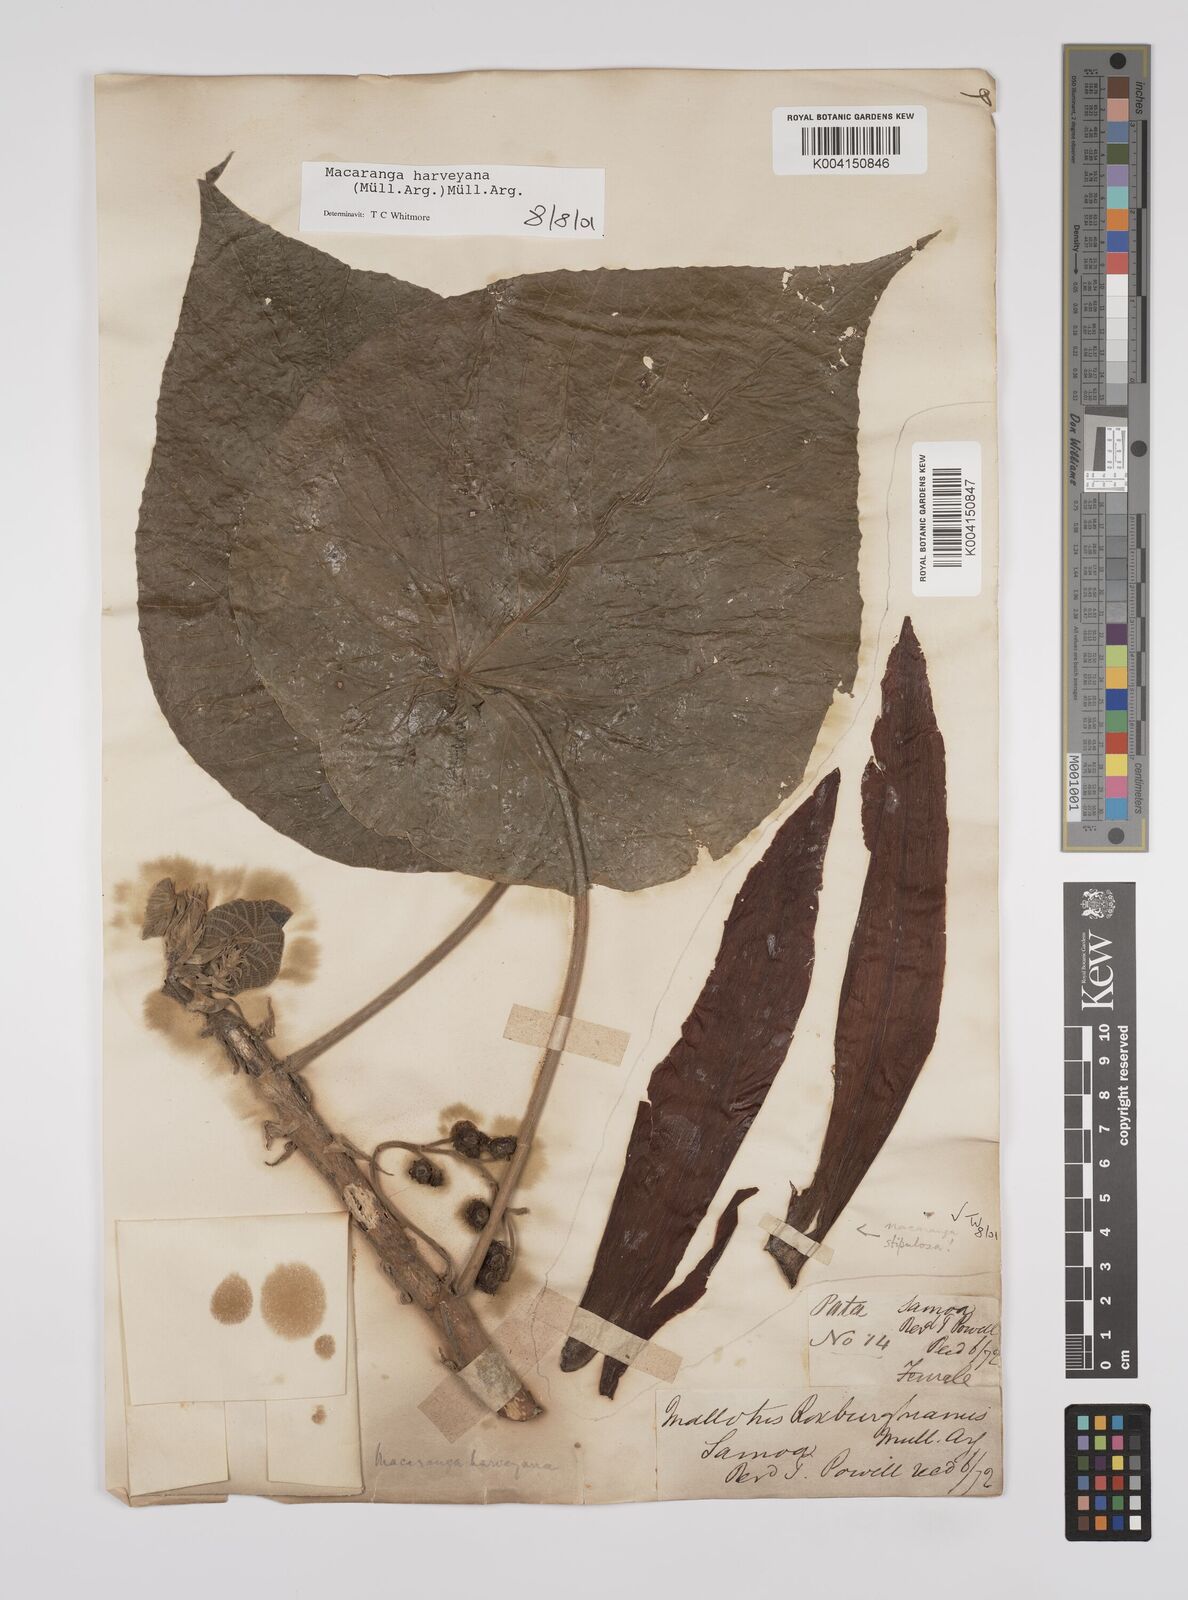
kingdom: Plantae
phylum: Tracheophyta
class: Magnoliopsida
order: Malpighiales
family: Euphorbiaceae
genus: Macaranga
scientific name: Macaranga harveyana
